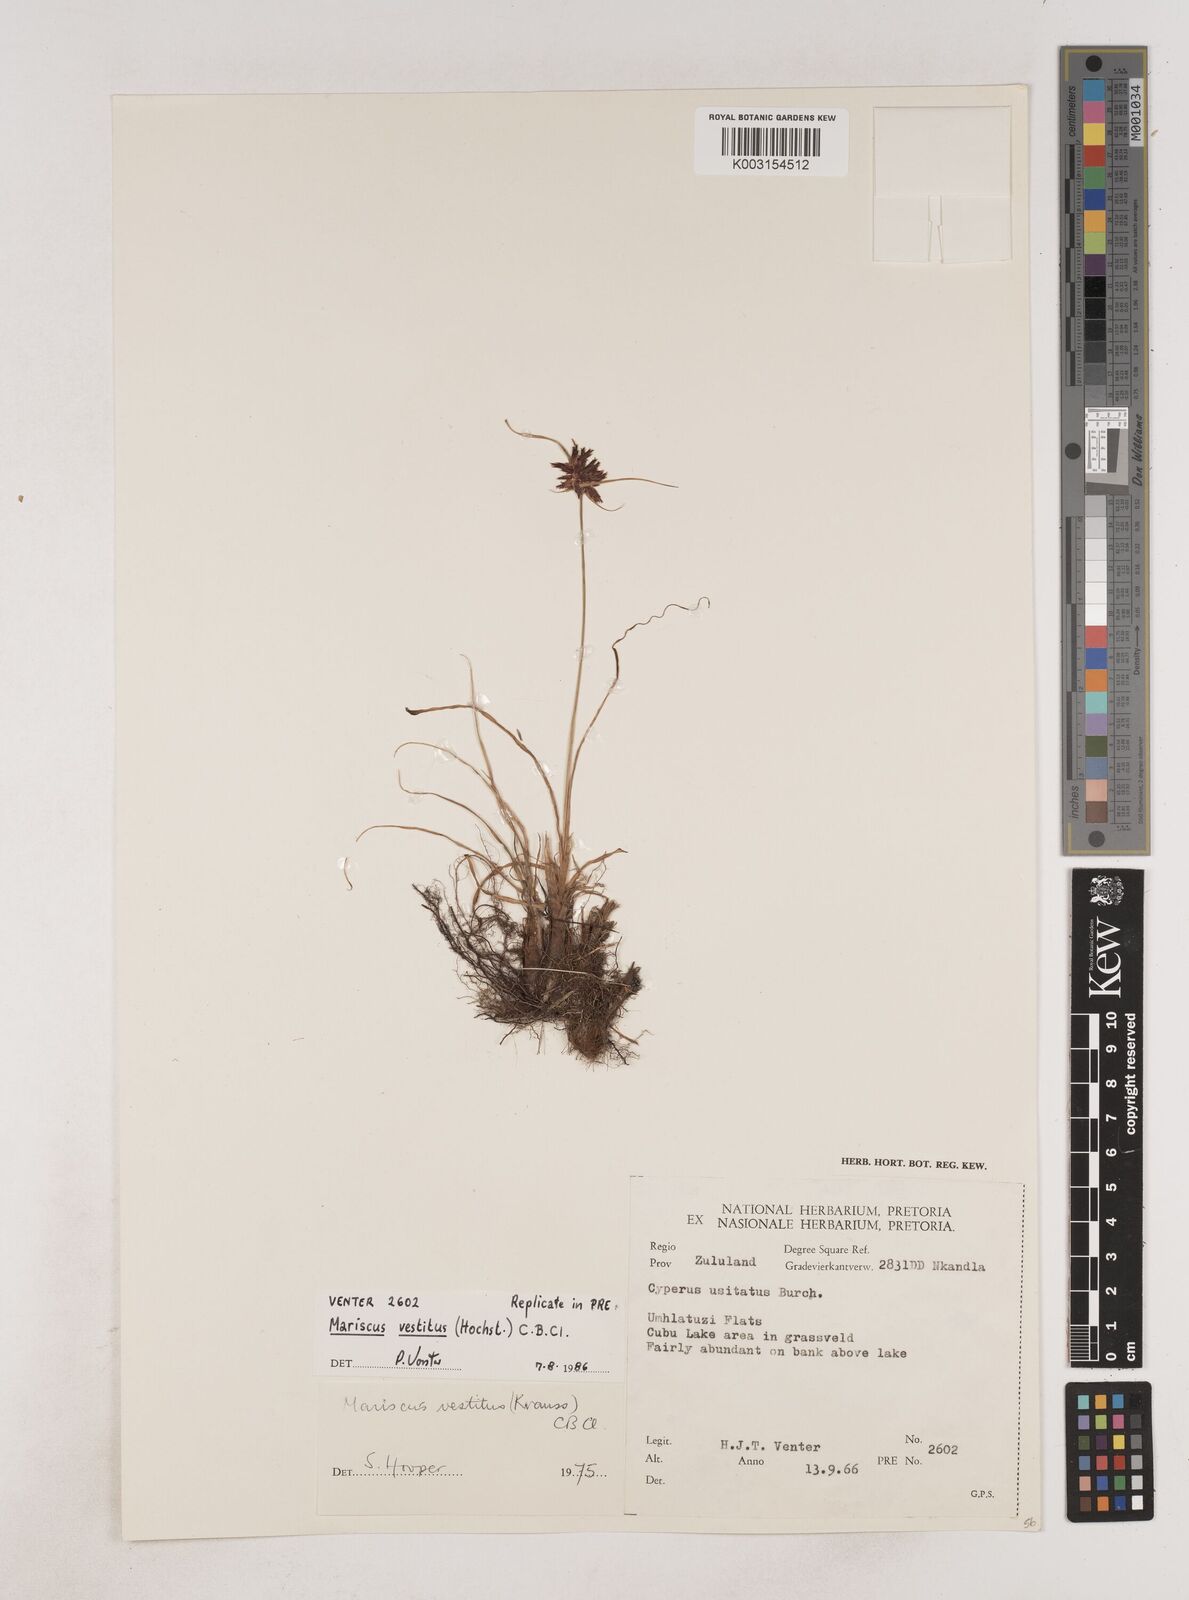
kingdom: Plantae
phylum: Tracheophyta
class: Liliopsida
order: Poales
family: Cyperaceae
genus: Cyperus
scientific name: Cyperus vestitus
